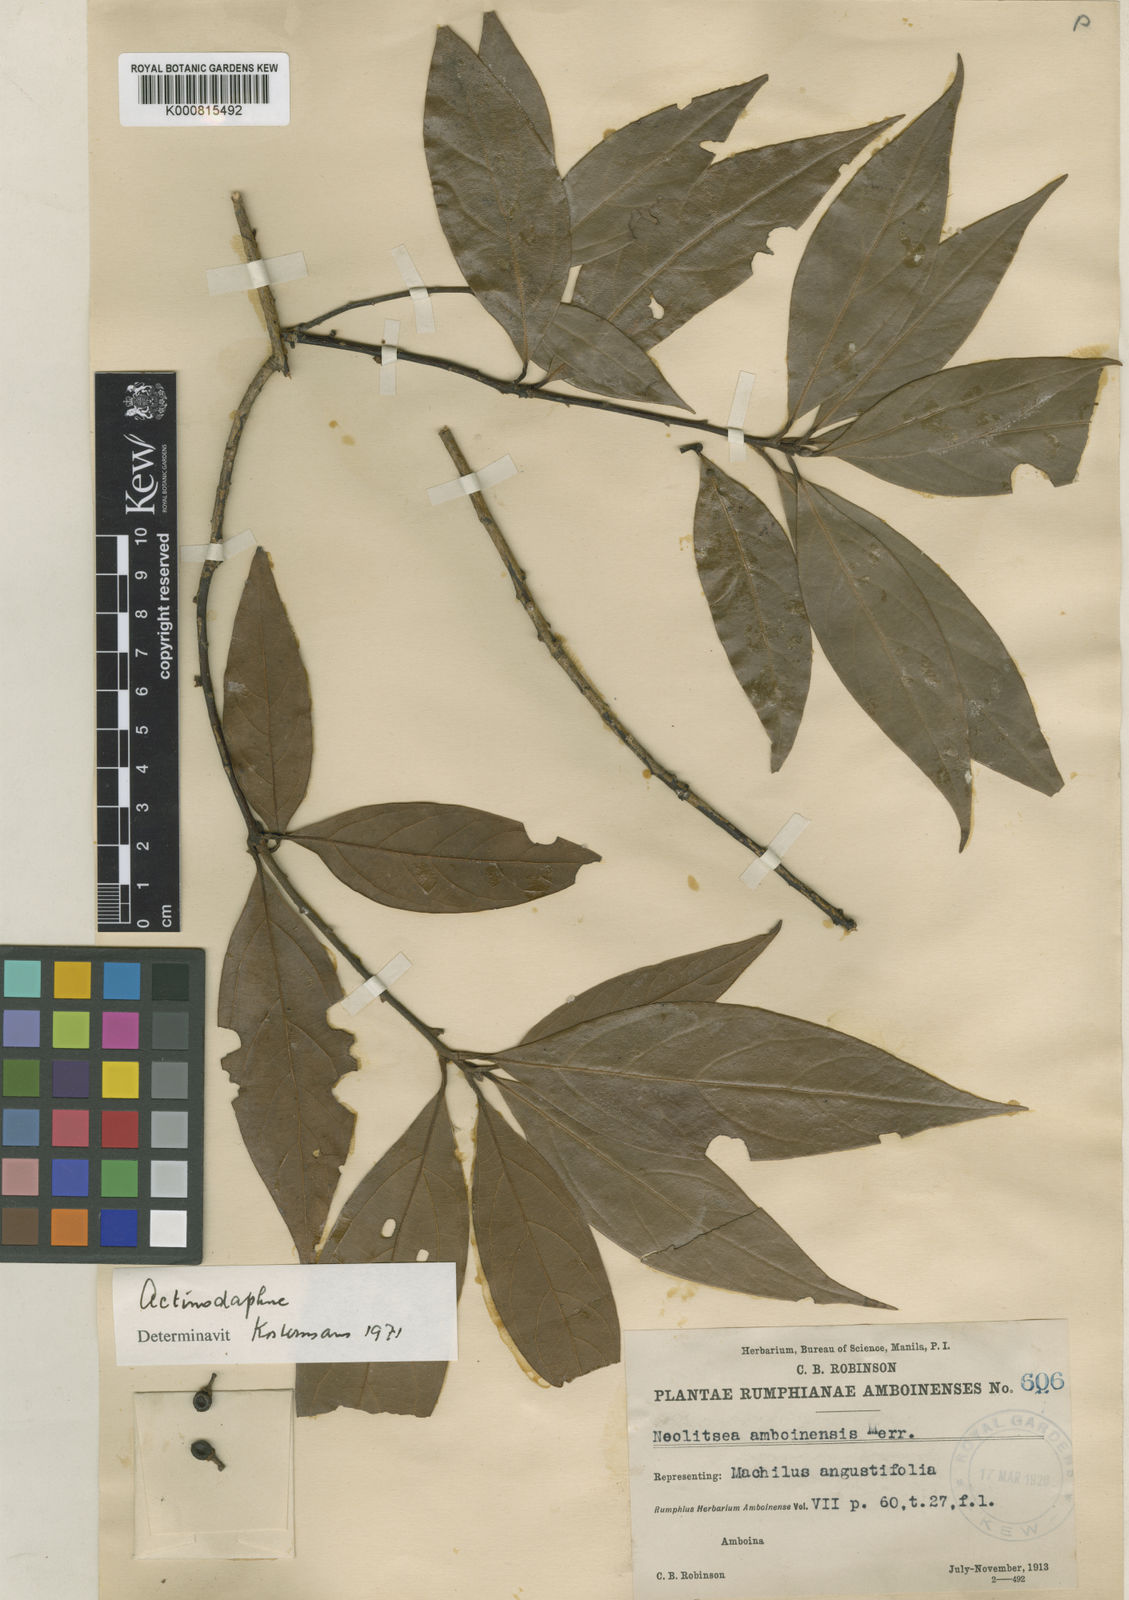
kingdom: Plantae
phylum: Tracheophyta
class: Magnoliopsida
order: Laurales
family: Lauraceae
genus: Neolitsea
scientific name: Neolitsea amboinensis
